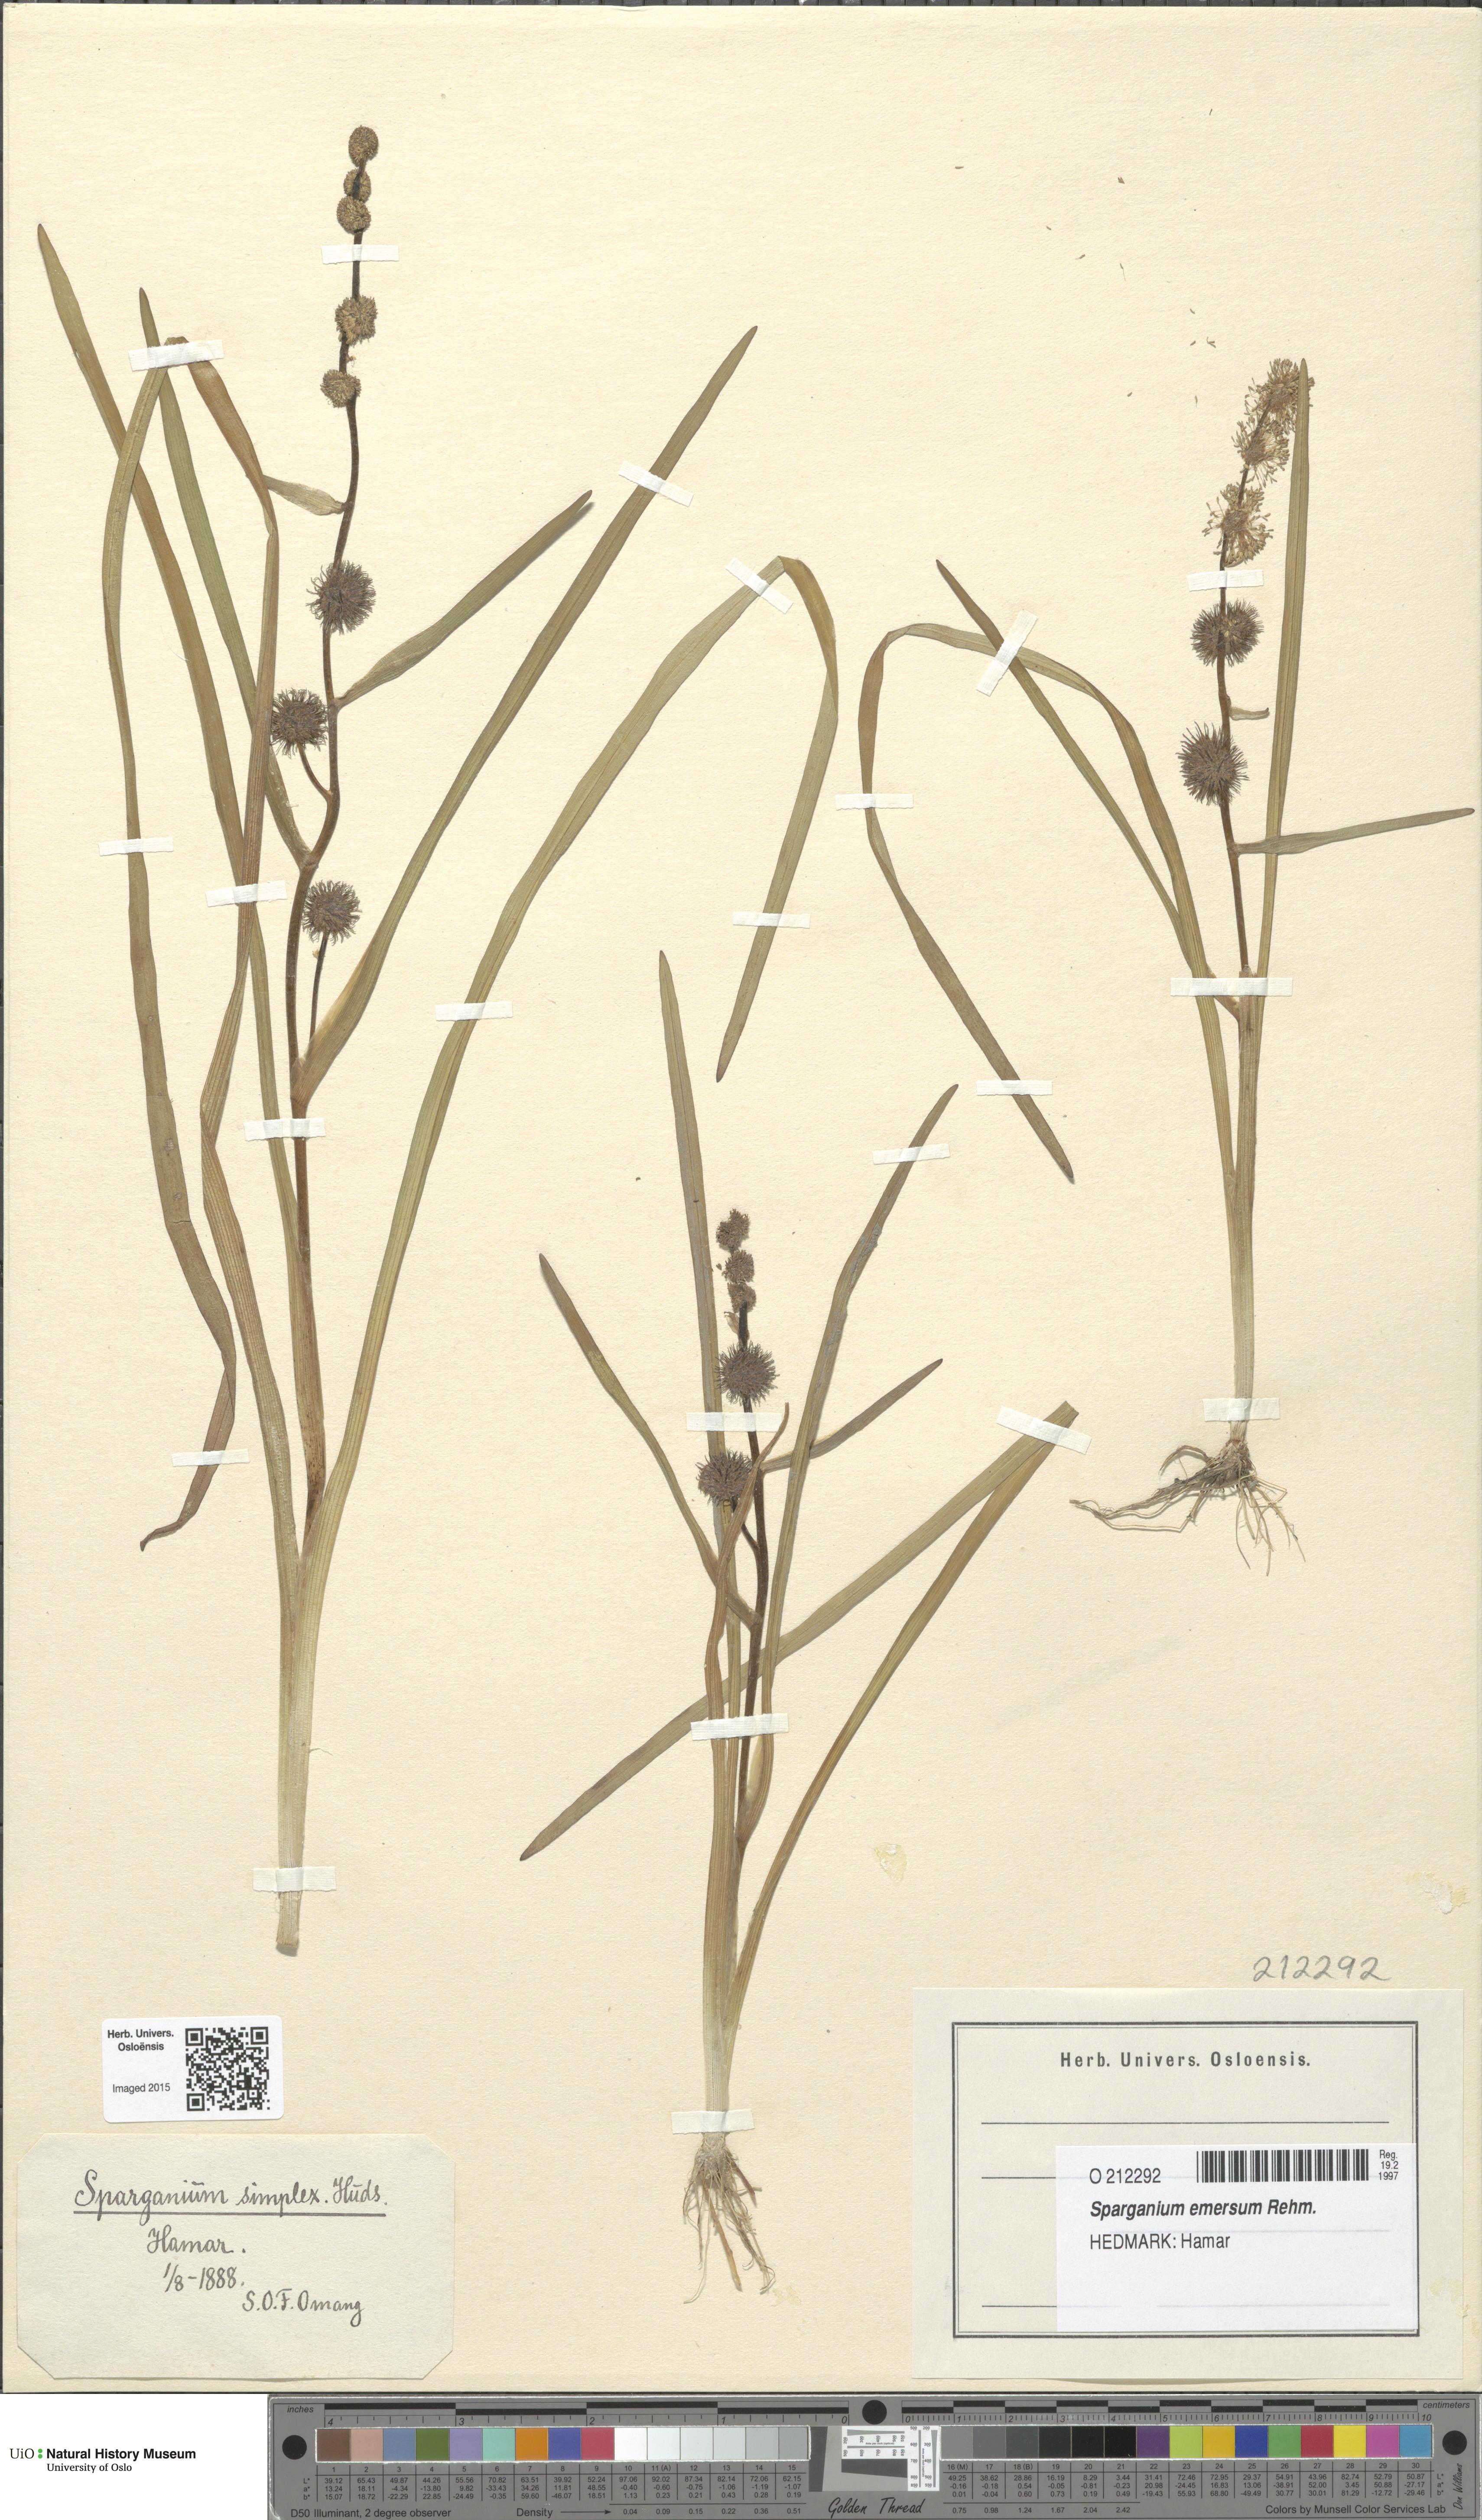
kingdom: Plantae
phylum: Tracheophyta
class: Liliopsida
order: Poales
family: Typhaceae
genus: Sparganium
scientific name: Sparganium emersum
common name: Unbranched bur-reed
